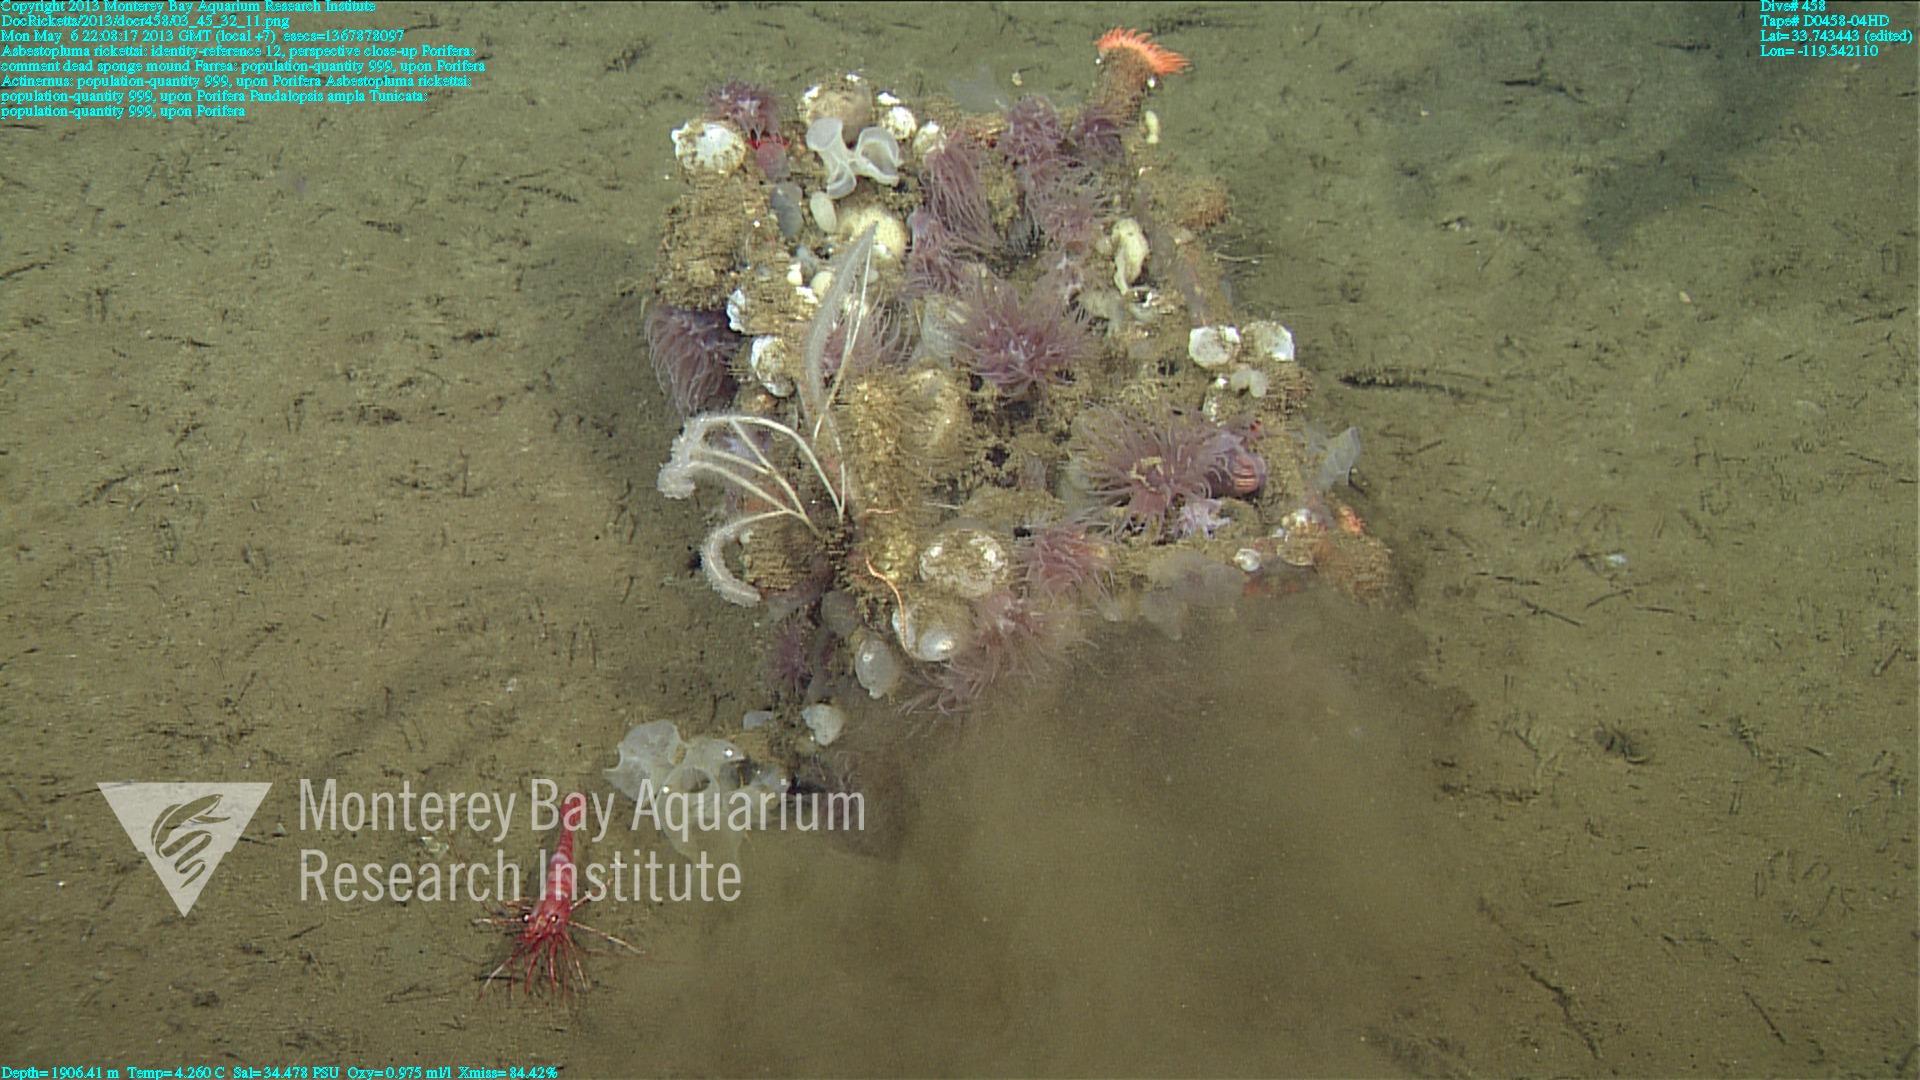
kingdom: Animalia
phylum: Porifera
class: Hexactinellida
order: Sceptrulophora
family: Farreidae
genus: Farrea
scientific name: Farrea
